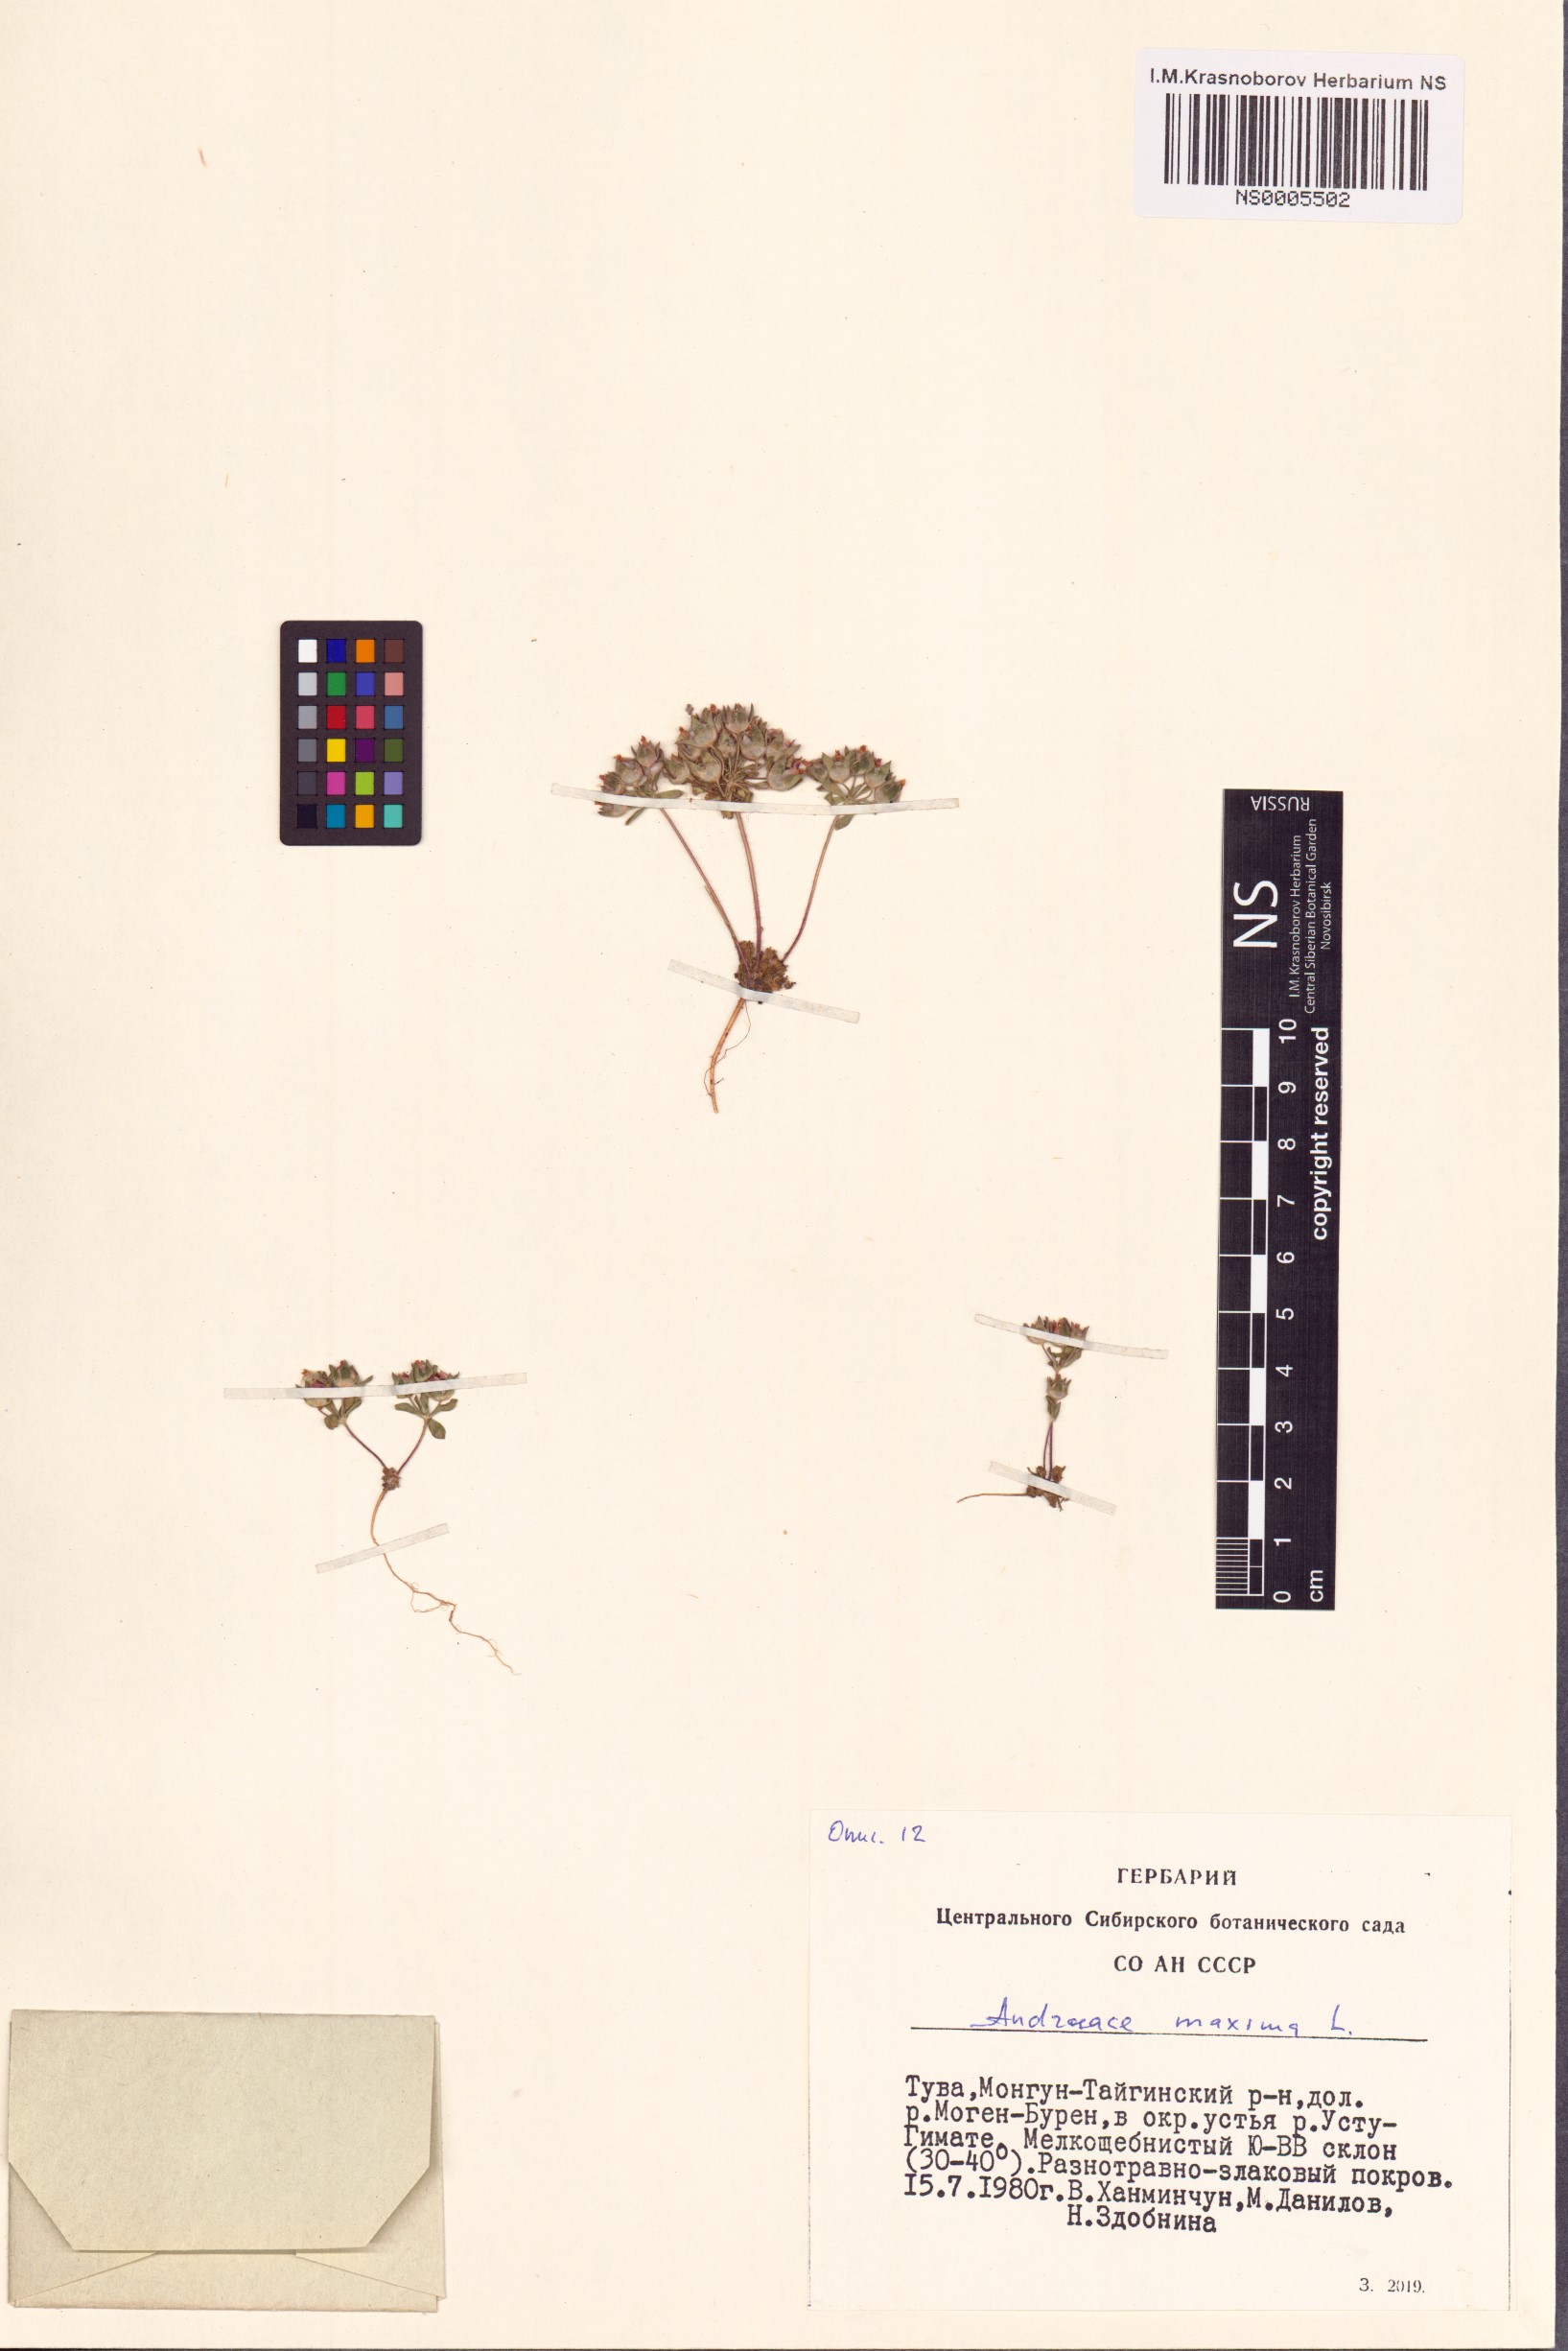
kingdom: Plantae
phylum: Tracheophyta
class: Magnoliopsida
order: Ericales
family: Primulaceae
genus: Androsace
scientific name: Androsace maxima
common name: Annual androsace
